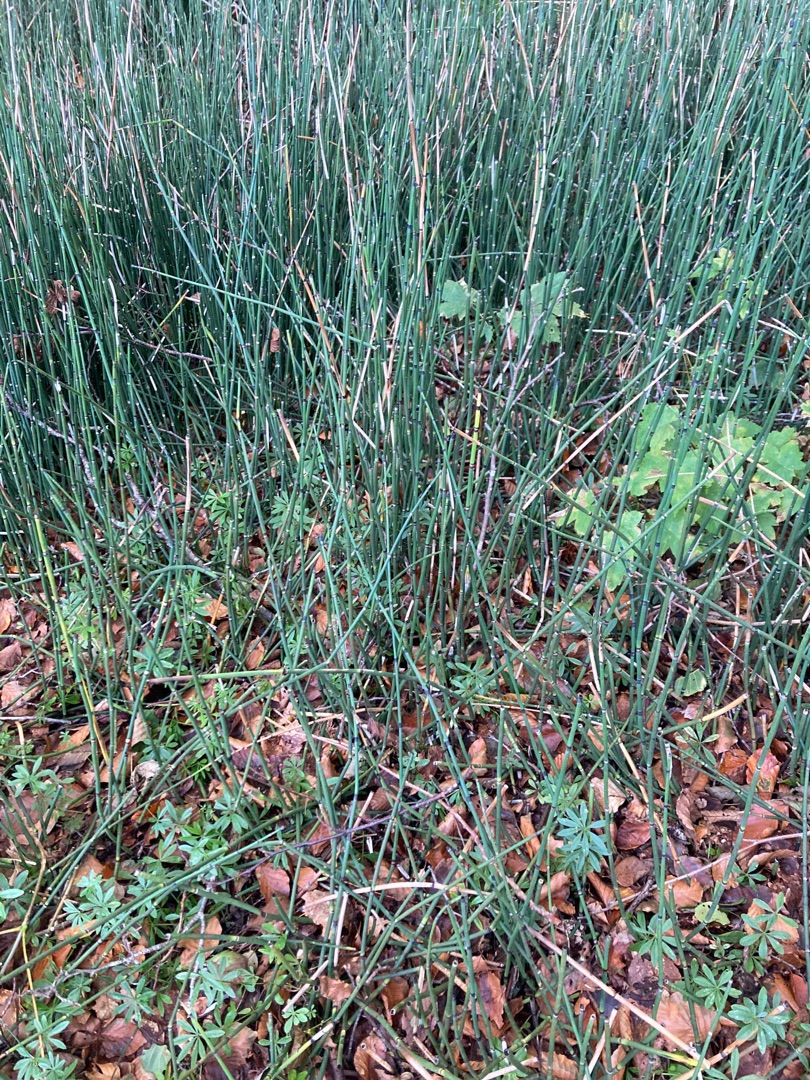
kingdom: Plantae
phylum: Tracheophyta
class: Polypodiopsida
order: Equisetales
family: Equisetaceae
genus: Equisetum
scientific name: Equisetum hyemale
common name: Skavgræs
